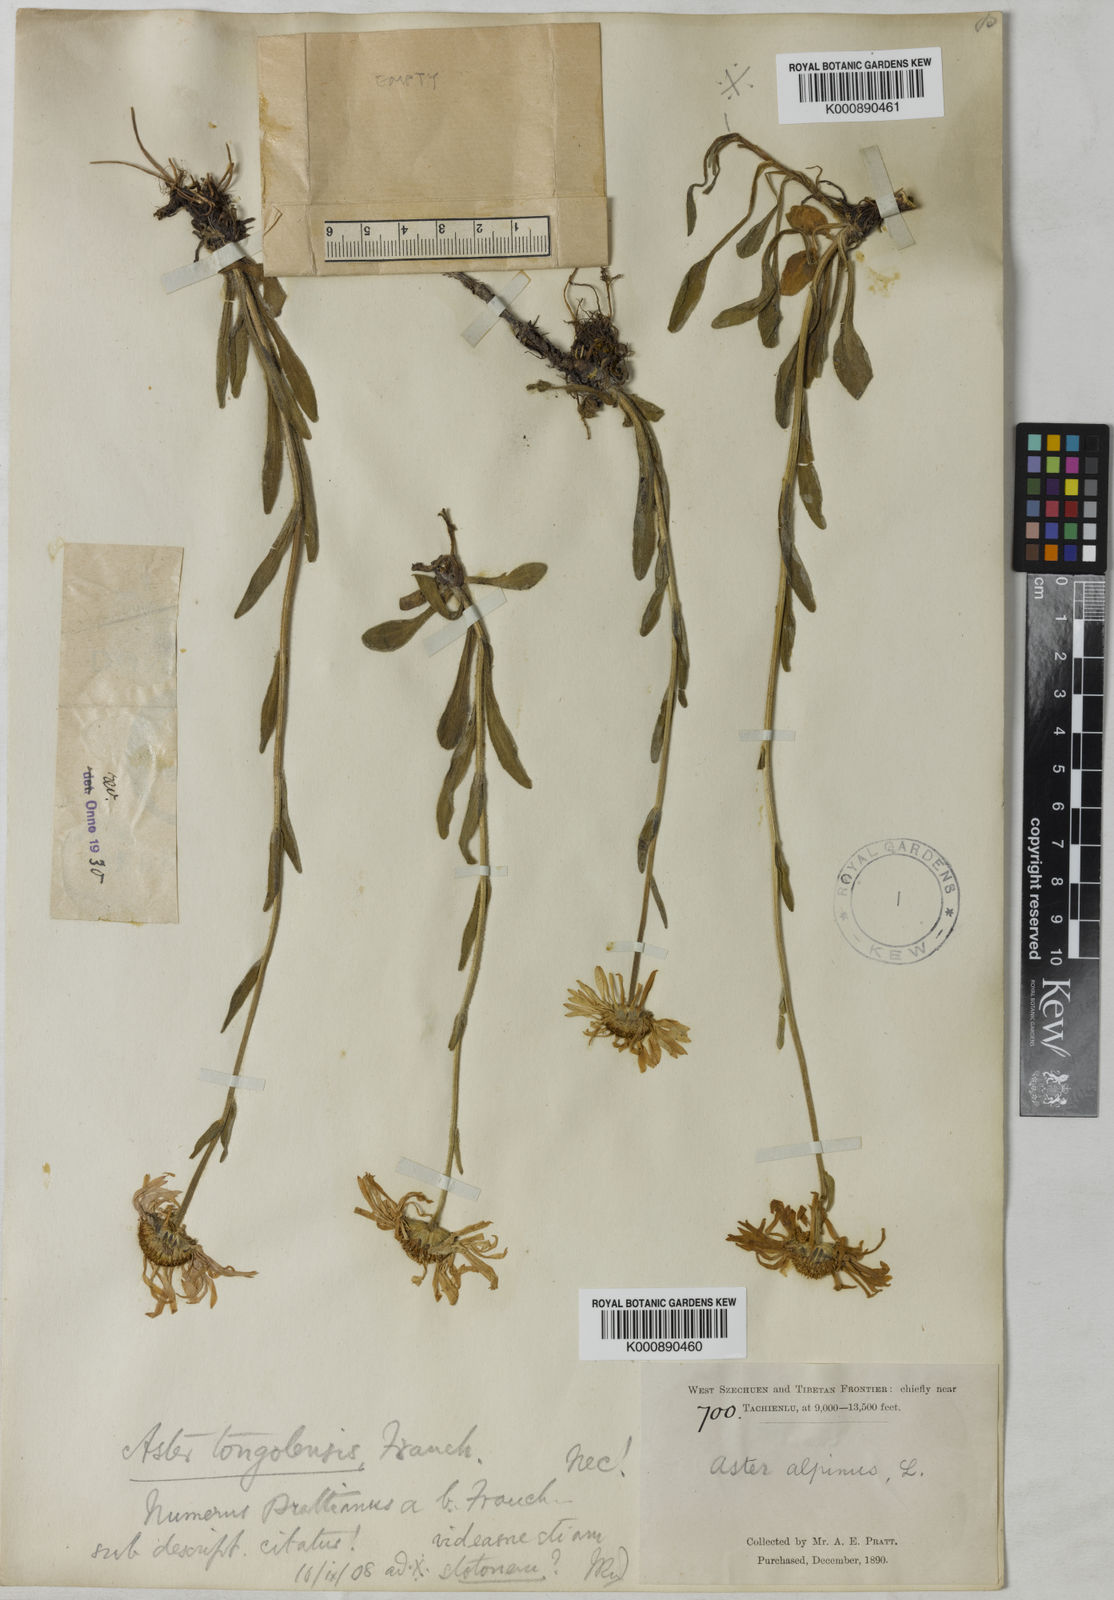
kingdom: Plantae
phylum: Tracheophyta
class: Magnoliopsida
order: Asterales
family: Asteraceae
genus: Aster
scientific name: Aster tongolensis
